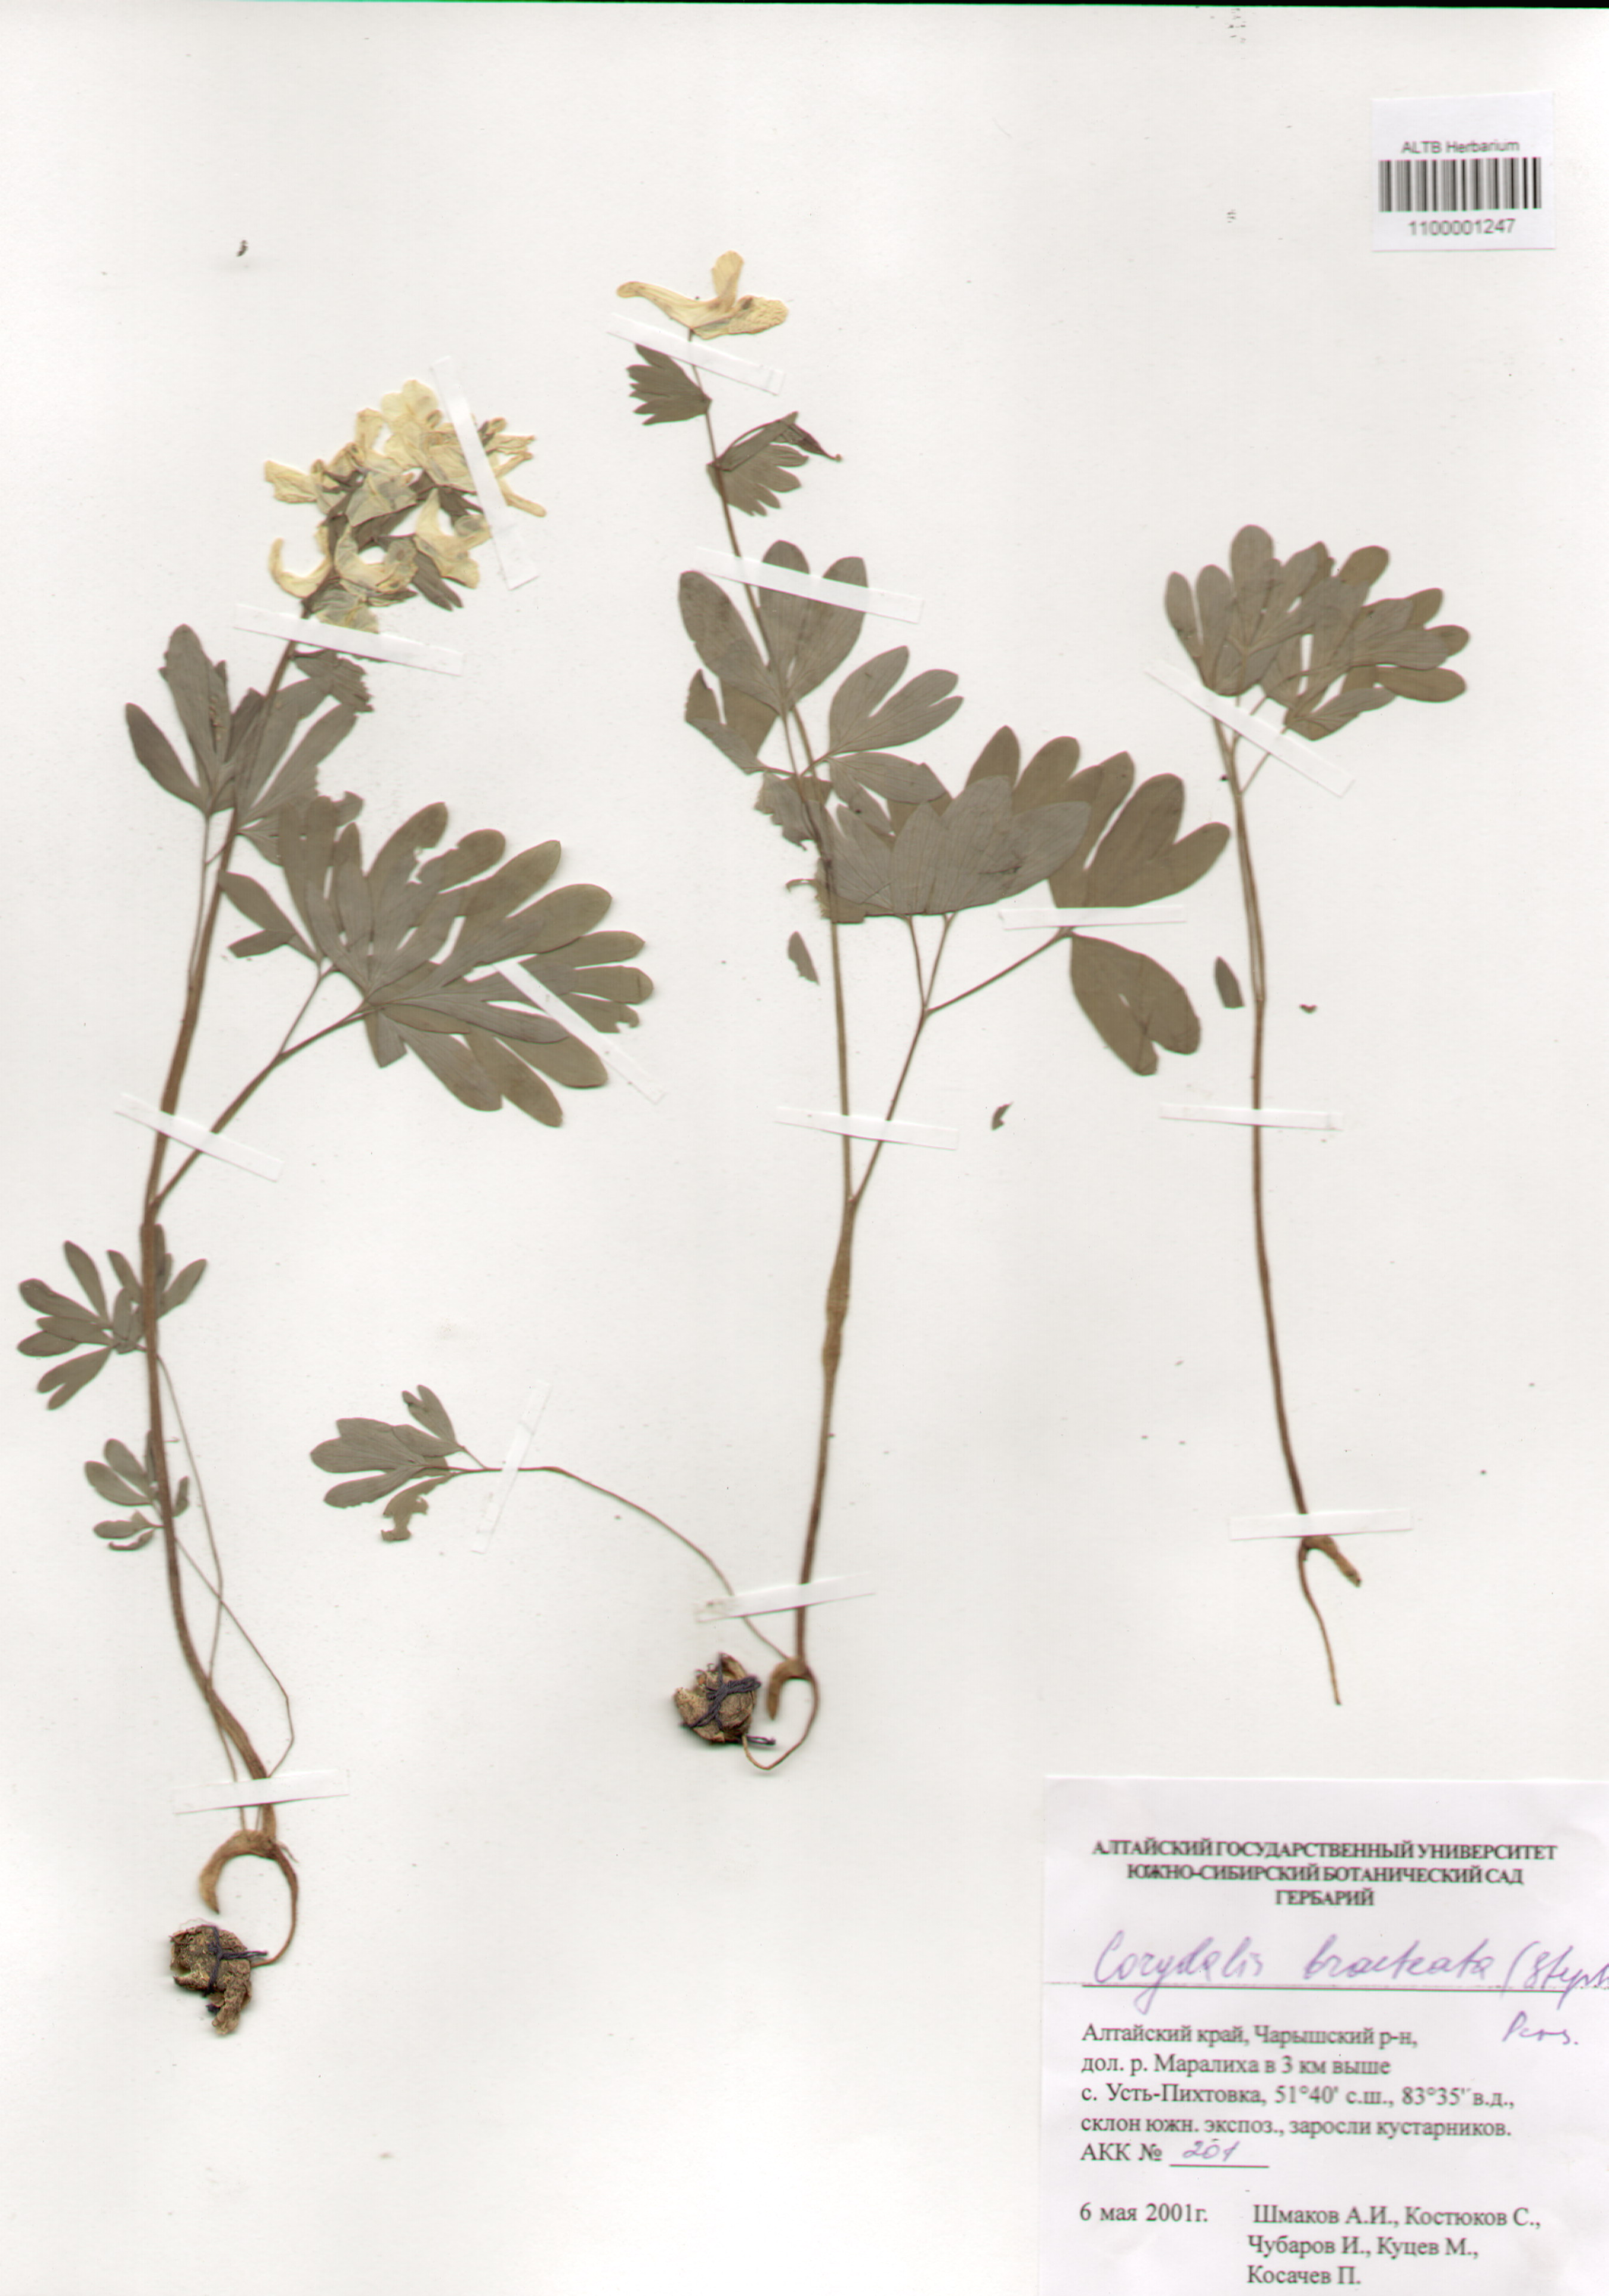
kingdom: Plantae
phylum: Tracheophyta
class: Magnoliopsida
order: Ranunculales
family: Papaveraceae
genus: Corydalis
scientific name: Corydalis bracteata
